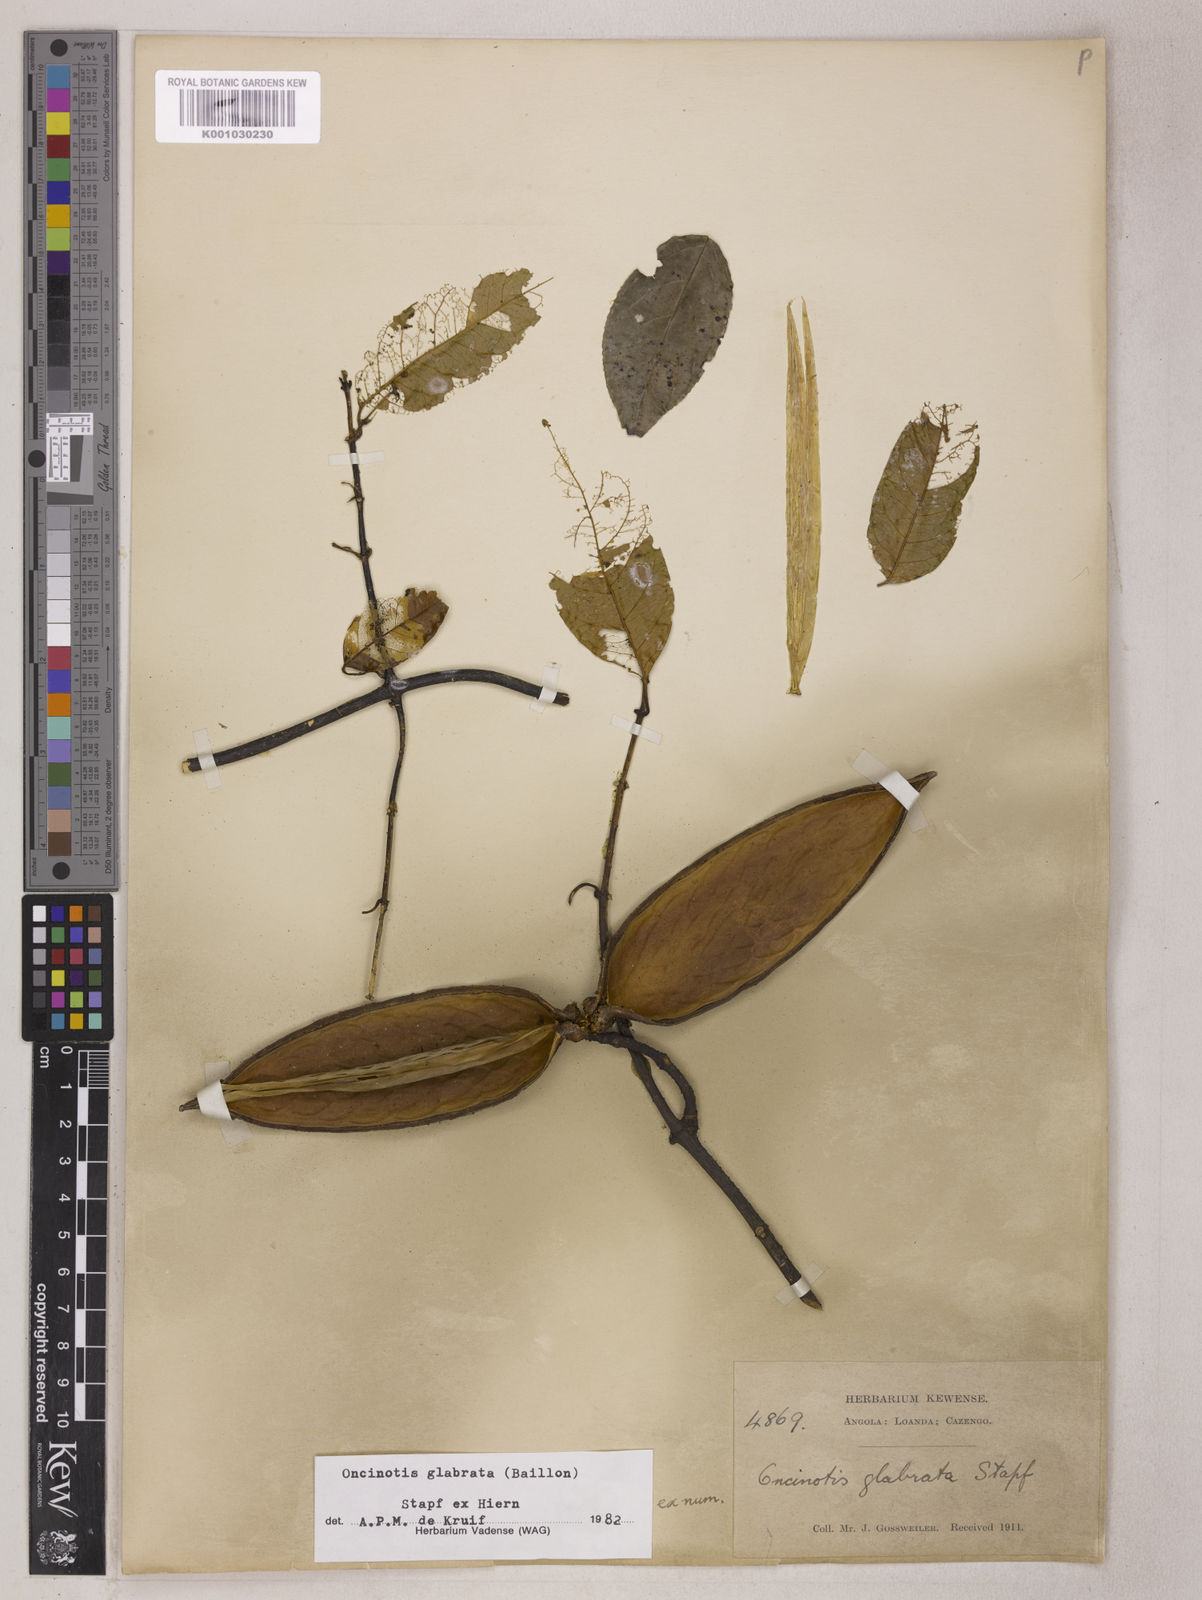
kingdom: Plantae
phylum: Tracheophyta
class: Magnoliopsida
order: Gentianales
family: Apocynaceae
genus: Oncinotis
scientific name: Oncinotis glabrata
